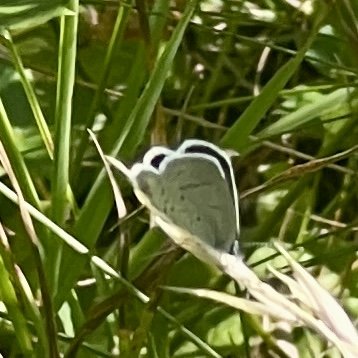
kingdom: Animalia
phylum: Arthropoda
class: Insecta
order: Lepidoptera
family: Lycaenidae
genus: Elkalyce
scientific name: Elkalyce comyntas
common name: Eastern Tailed-Blue
